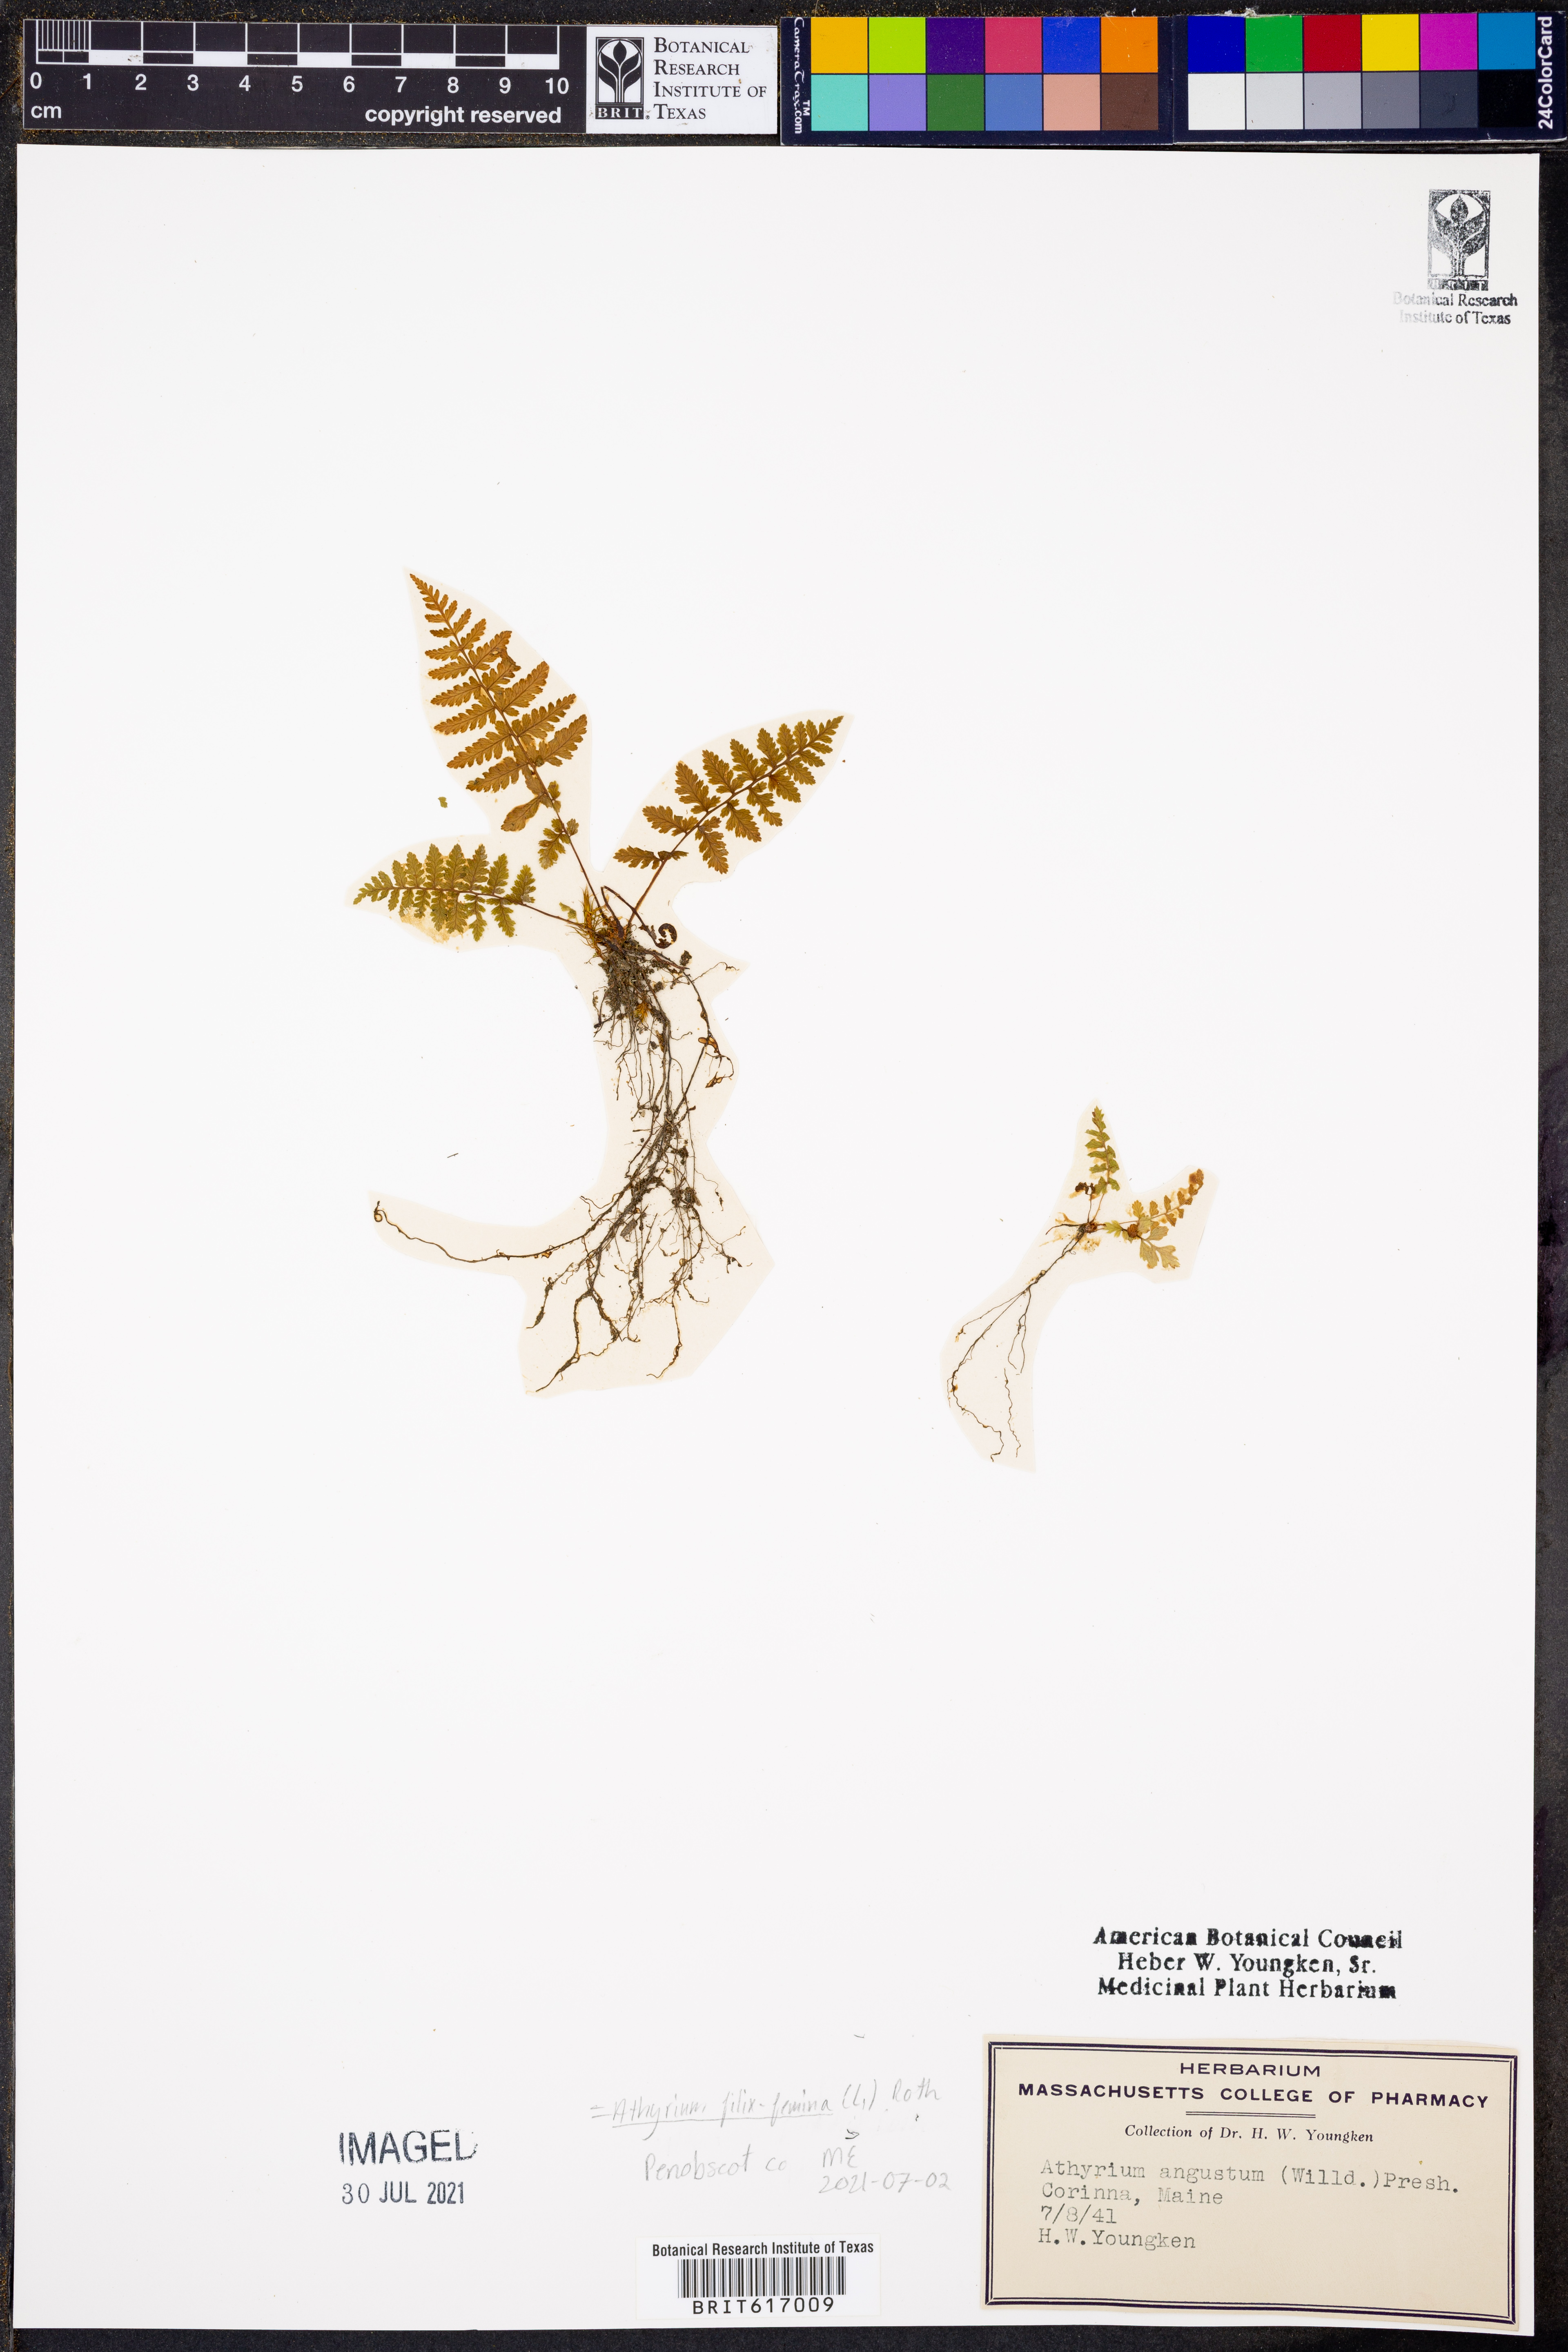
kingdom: Plantae
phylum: Tracheophyta
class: Polypodiopsida
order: Polypodiales
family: Athyriaceae
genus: Athyrium
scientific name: Athyrium filix-femina
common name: Lady fern
